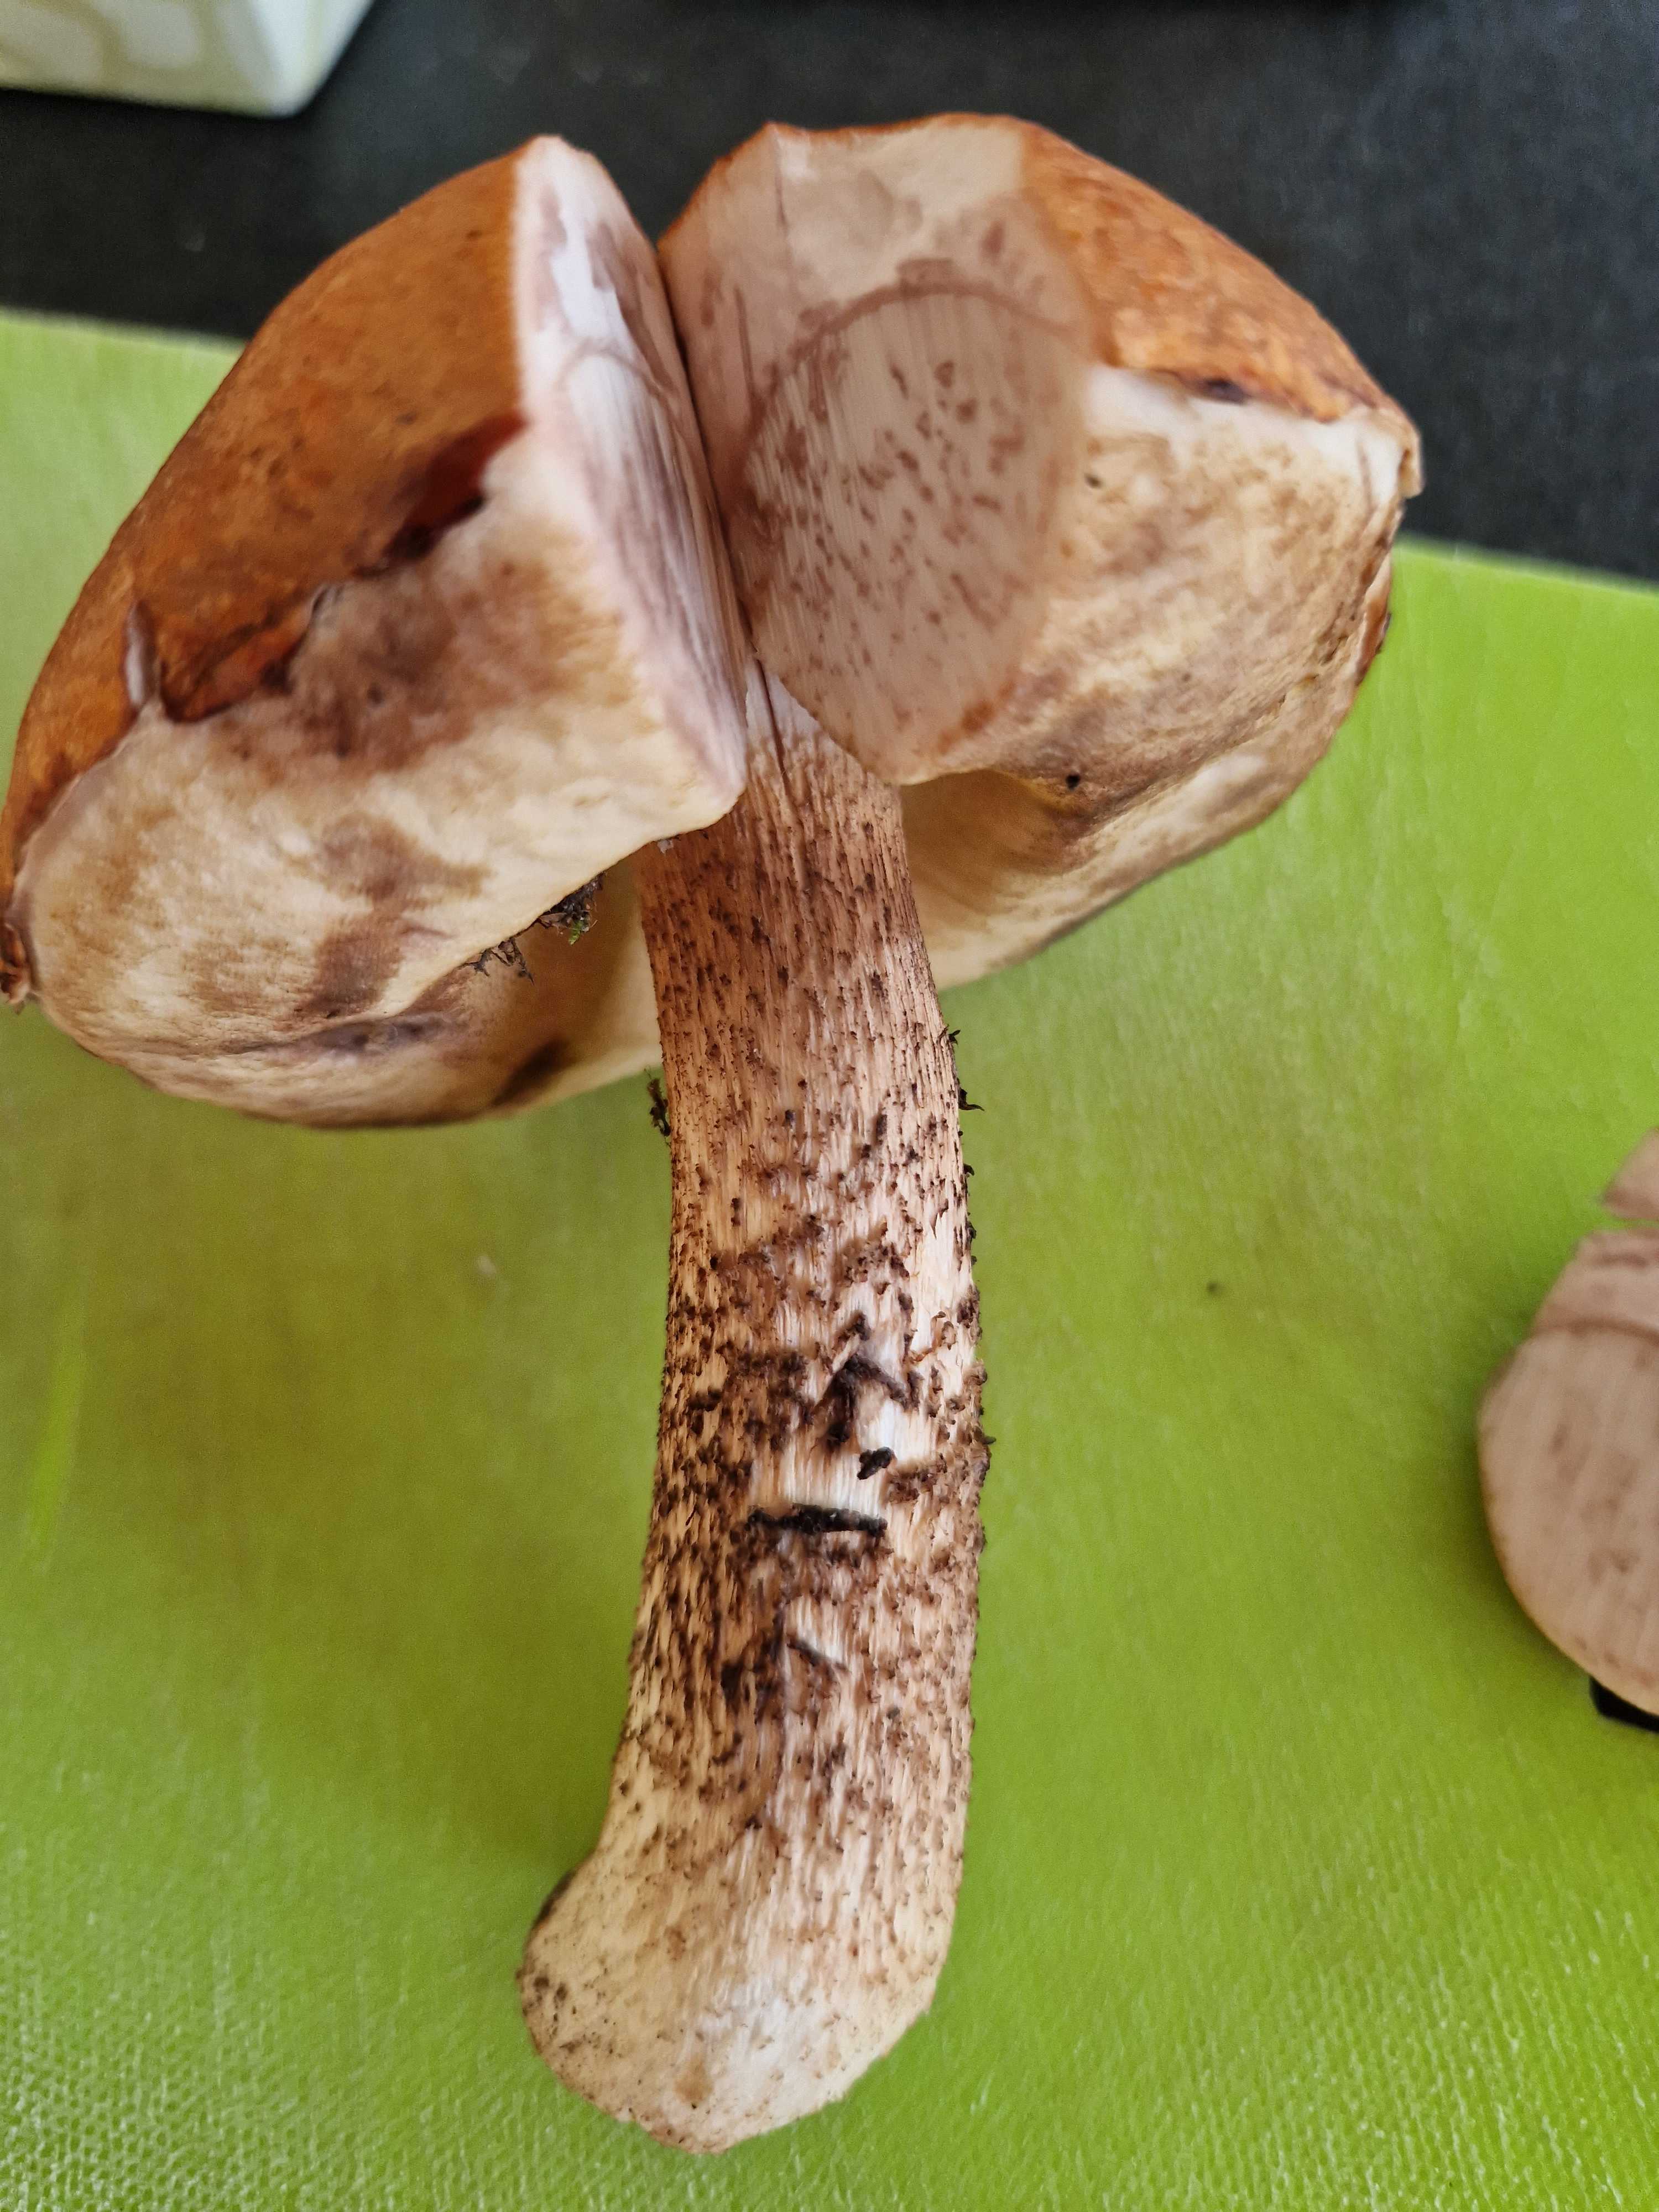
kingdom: Fungi
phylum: Basidiomycota
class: Agaricomycetes
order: Boletales
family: Boletaceae
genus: Leccinum
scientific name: Leccinum
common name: skælrørhat
